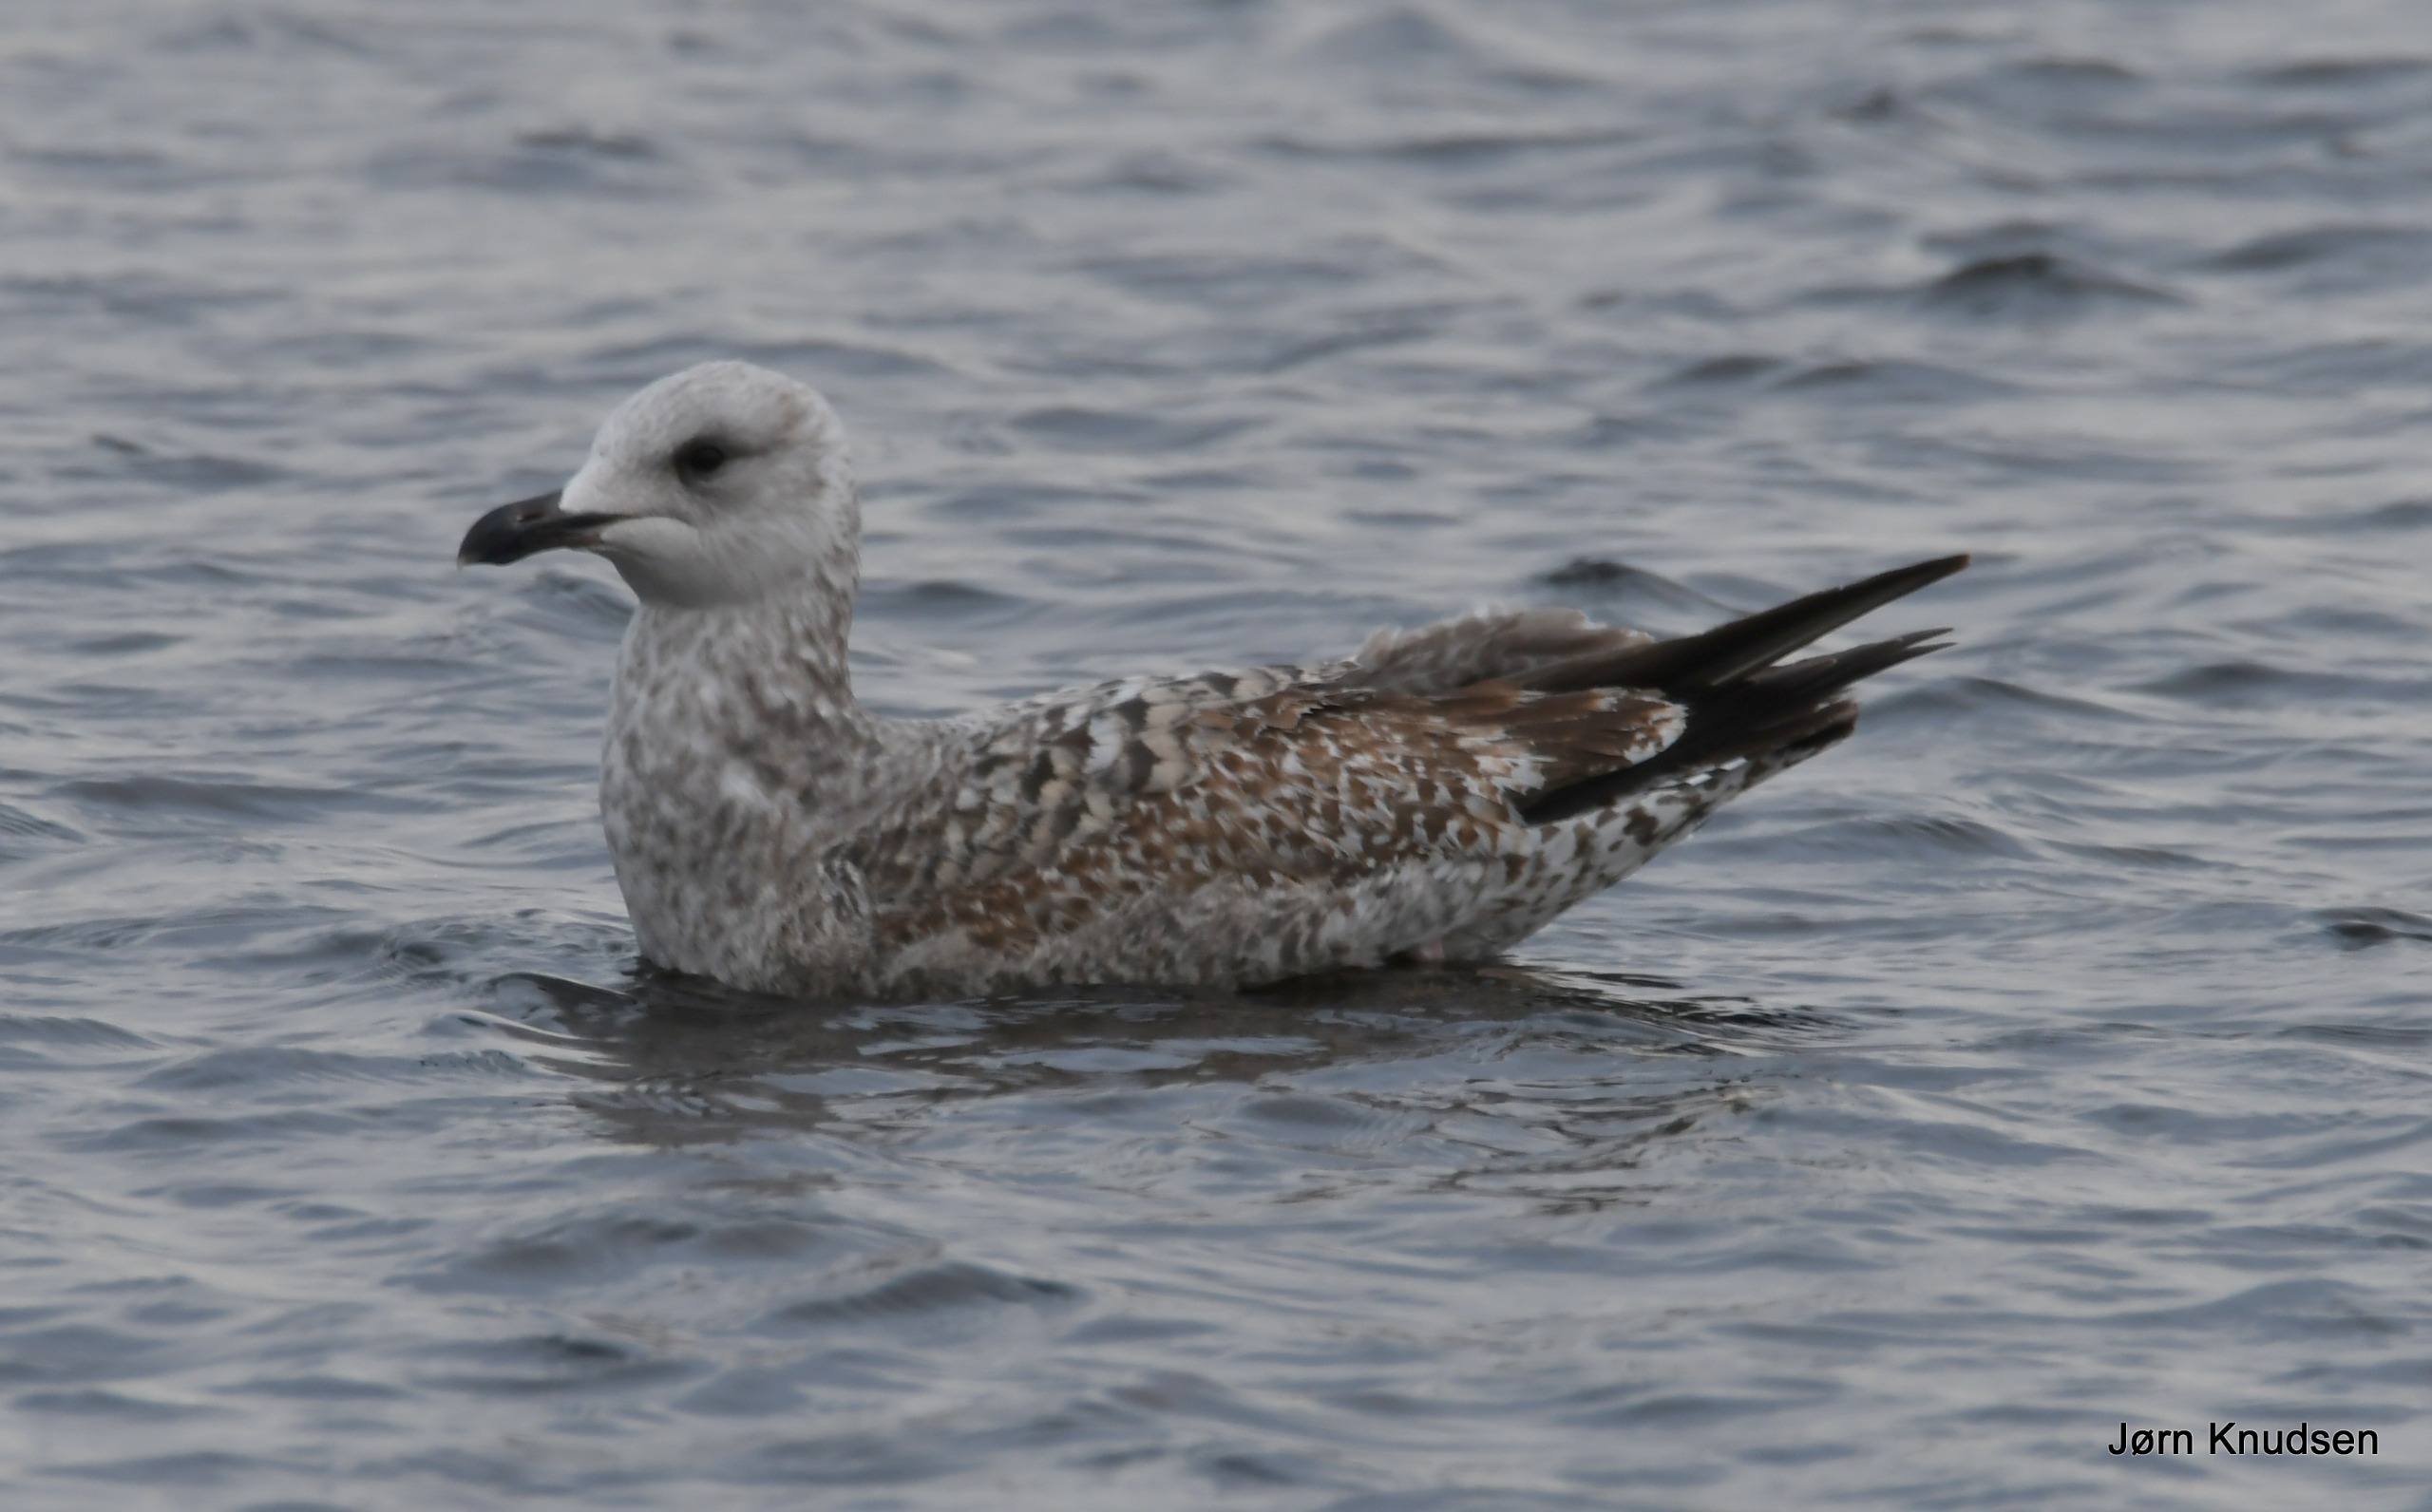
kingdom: Animalia
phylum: Chordata
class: Aves
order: Charadriiformes
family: Laridae
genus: Larus
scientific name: Larus argentatus
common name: Sølvmåge
